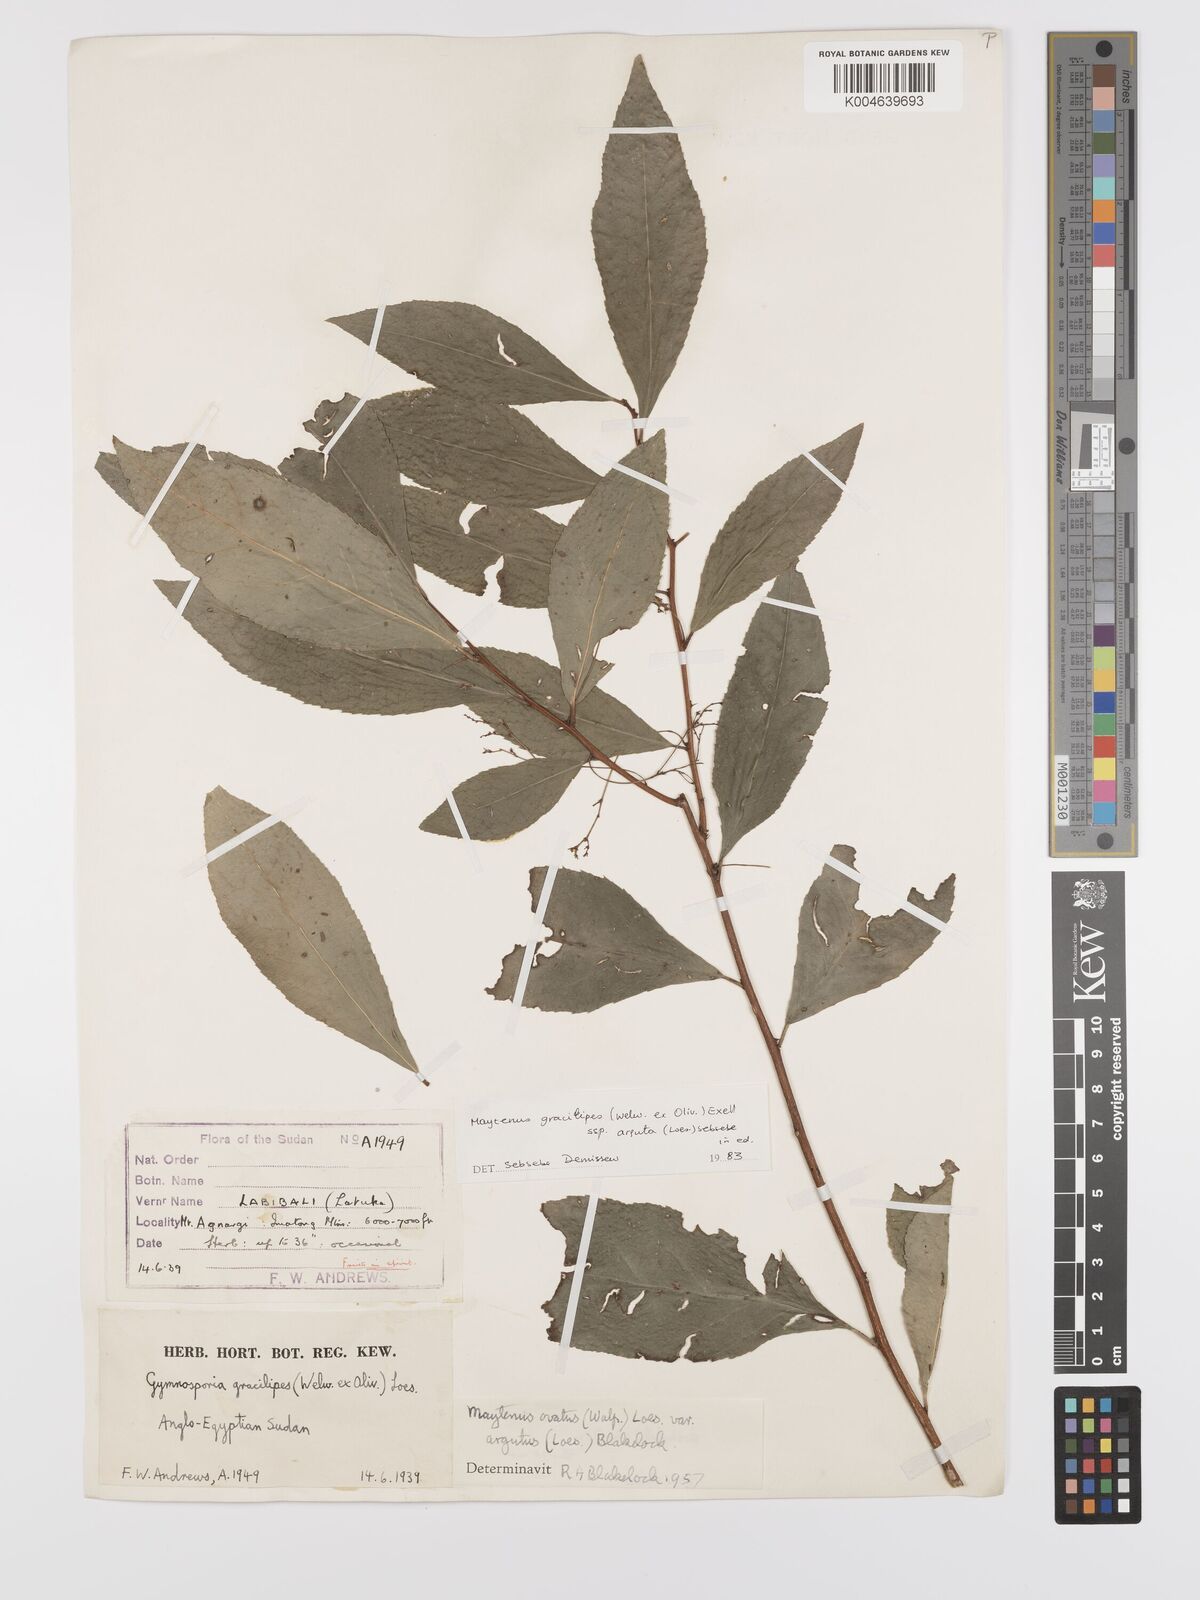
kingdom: Plantae
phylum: Tracheophyta
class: Magnoliopsida
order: Celastrales
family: Celastraceae
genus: Gymnosporia
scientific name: Gymnosporia gracilipes
